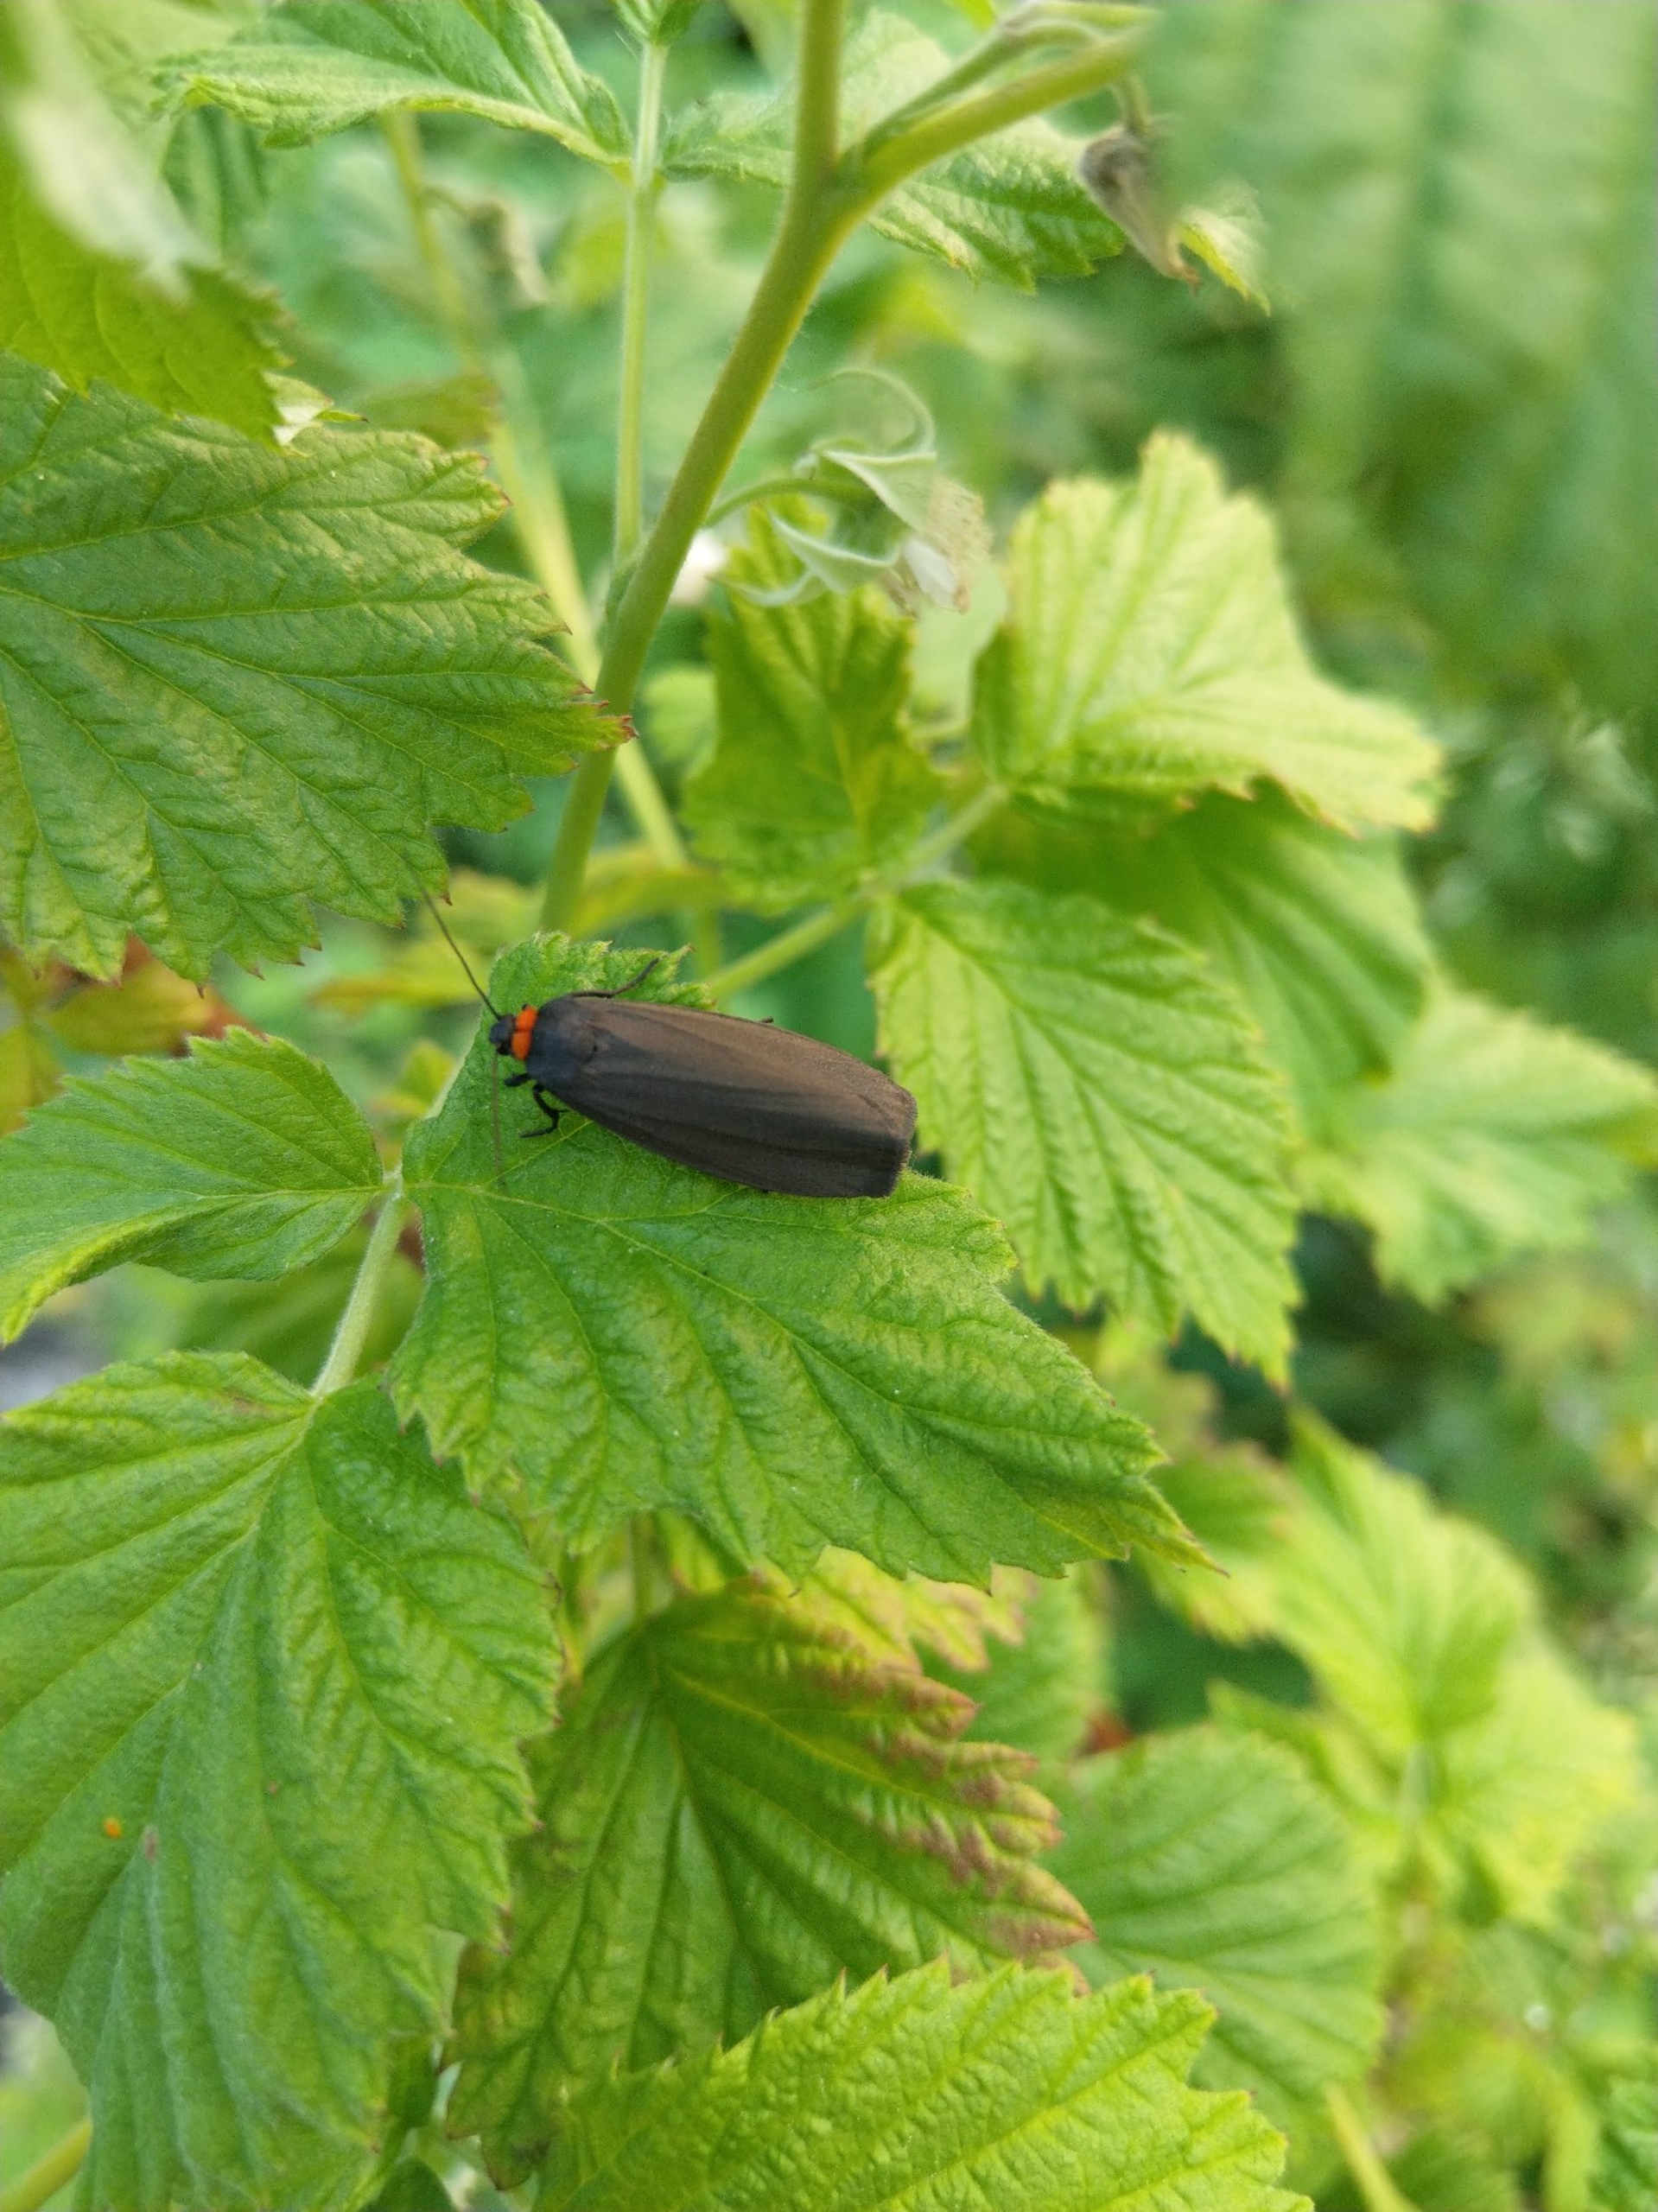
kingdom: Animalia
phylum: Arthropoda
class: Insecta
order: Lepidoptera
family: Erebidae
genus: Atolmis
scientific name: Atolmis rubricollis
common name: Blodnakke
